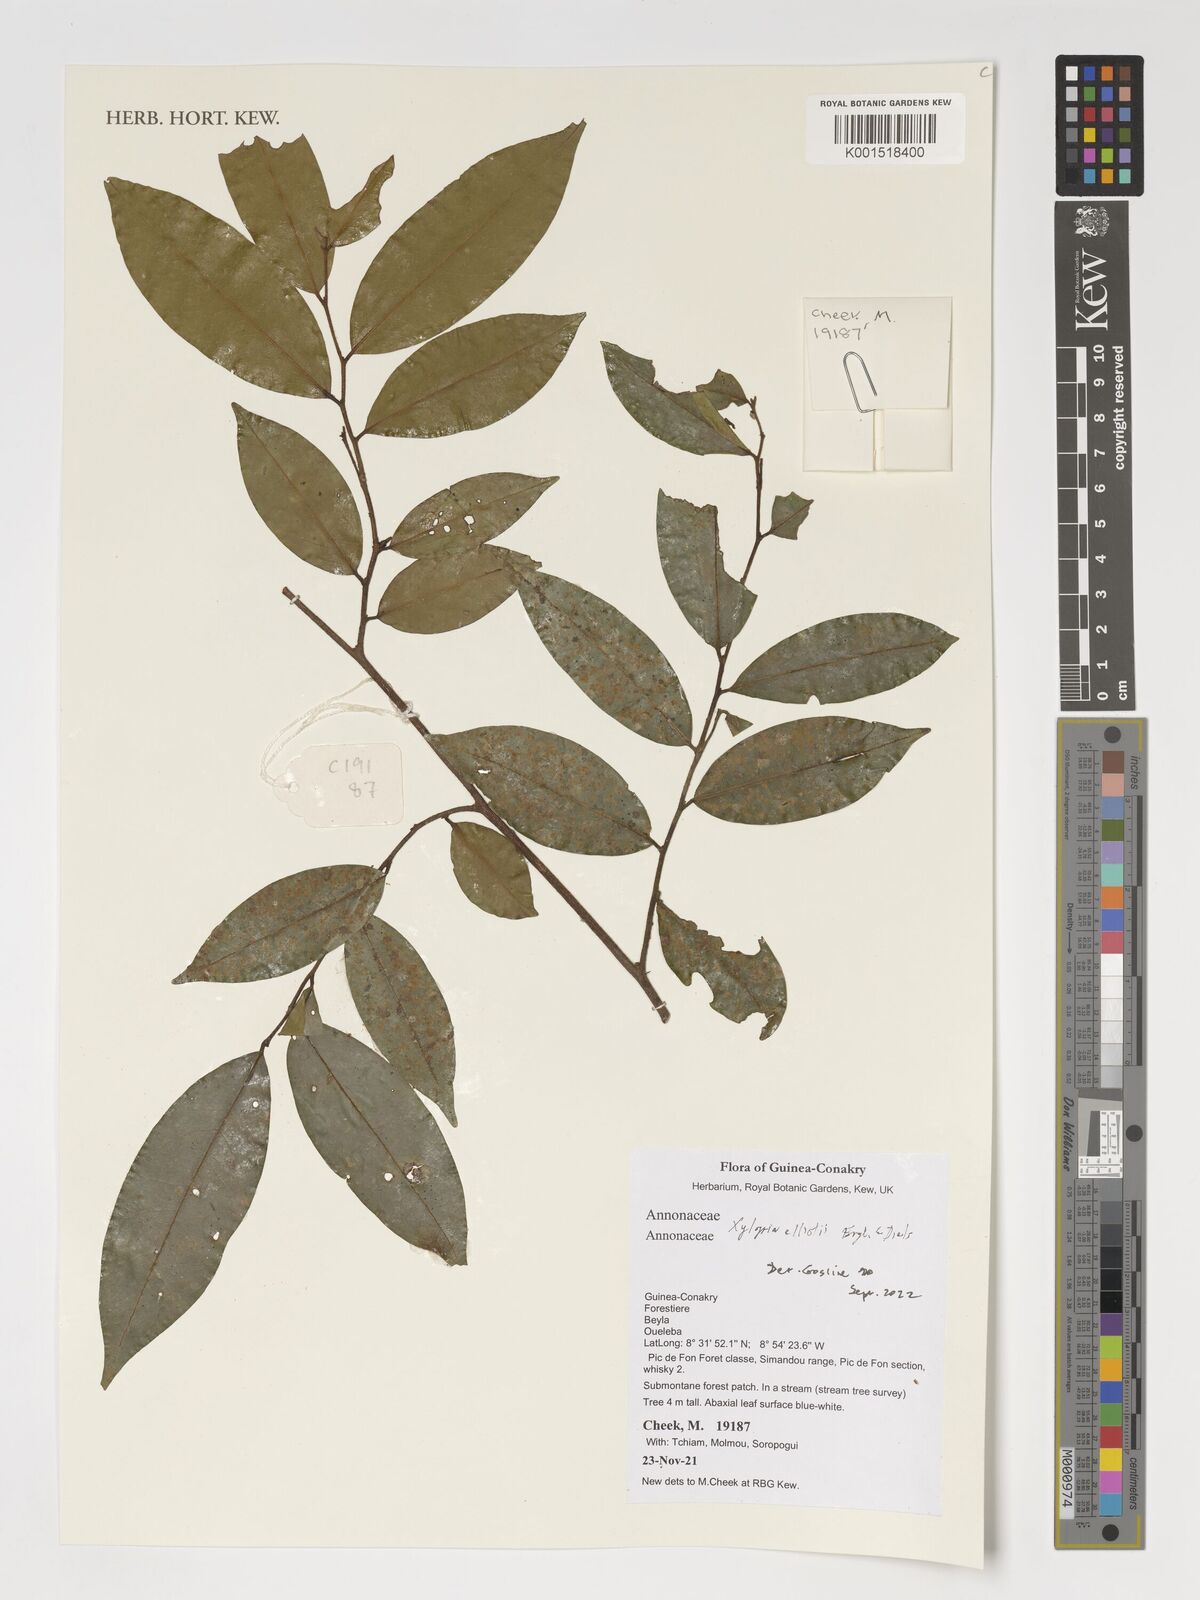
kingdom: Plantae
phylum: Tracheophyta
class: Magnoliopsida
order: Magnoliales
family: Annonaceae
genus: Xylopia
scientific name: Xylopia elliotii
